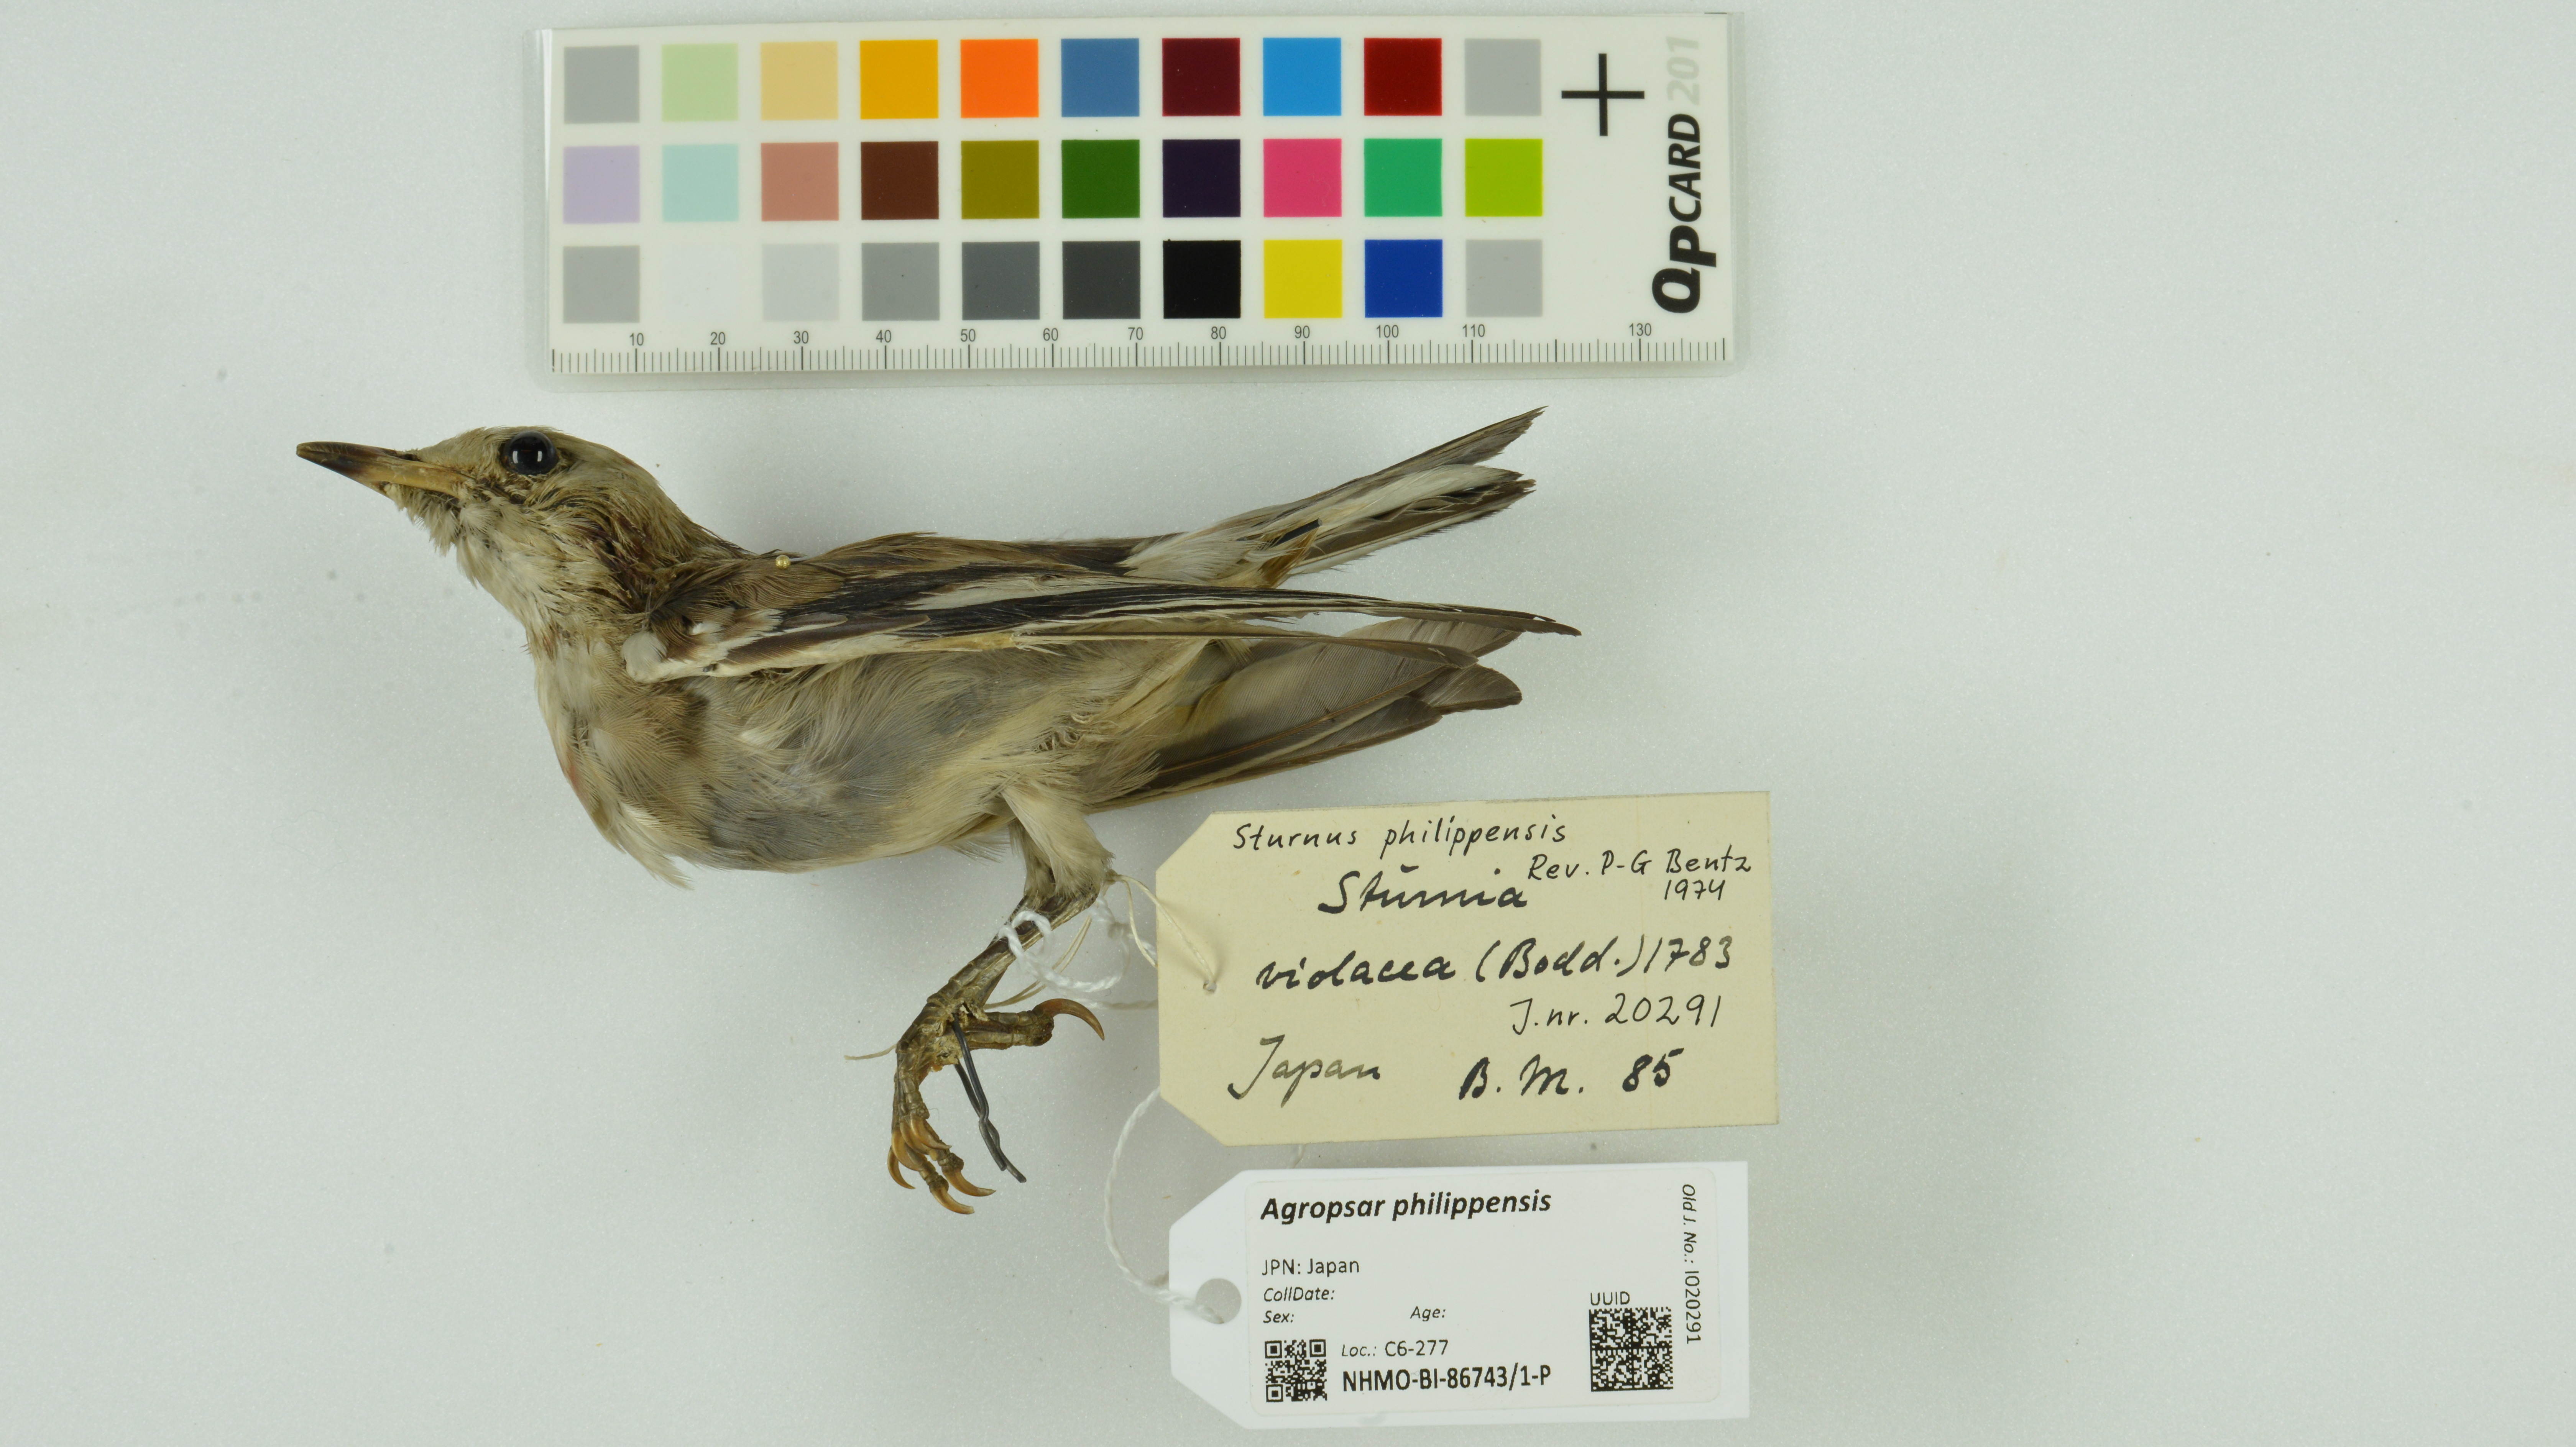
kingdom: Animalia
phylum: Chordata
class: Aves
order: Passeriformes
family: Sturnidae
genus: Agropsar
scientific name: Agropsar philippensis
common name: Chestnut-cheeked starling
